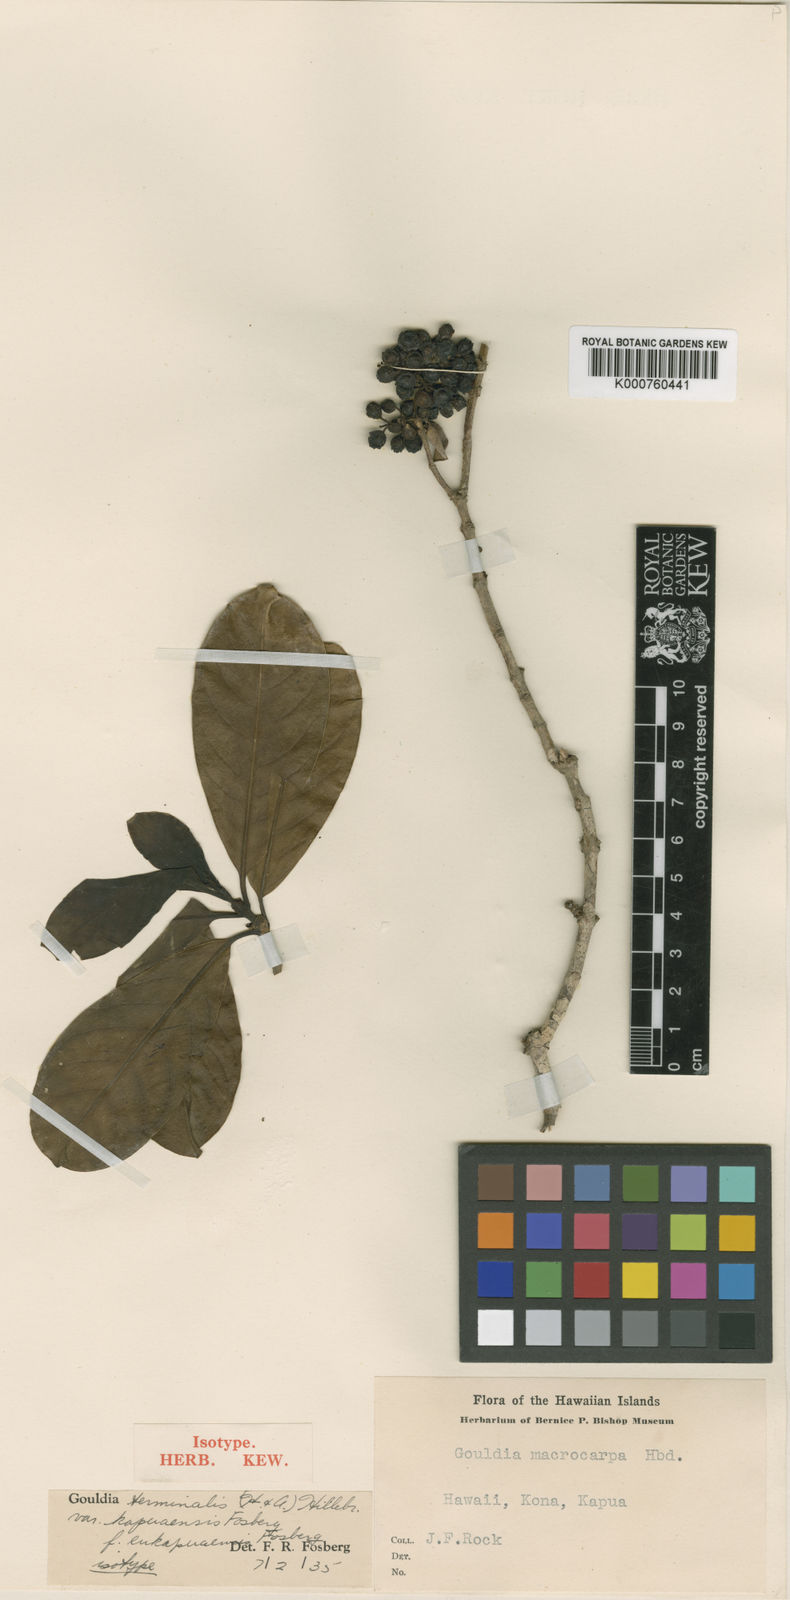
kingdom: Plantae
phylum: Tracheophyta
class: Magnoliopsida
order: Gentianales
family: Rubiaceae
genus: Kadua
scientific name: Kadua affinis
